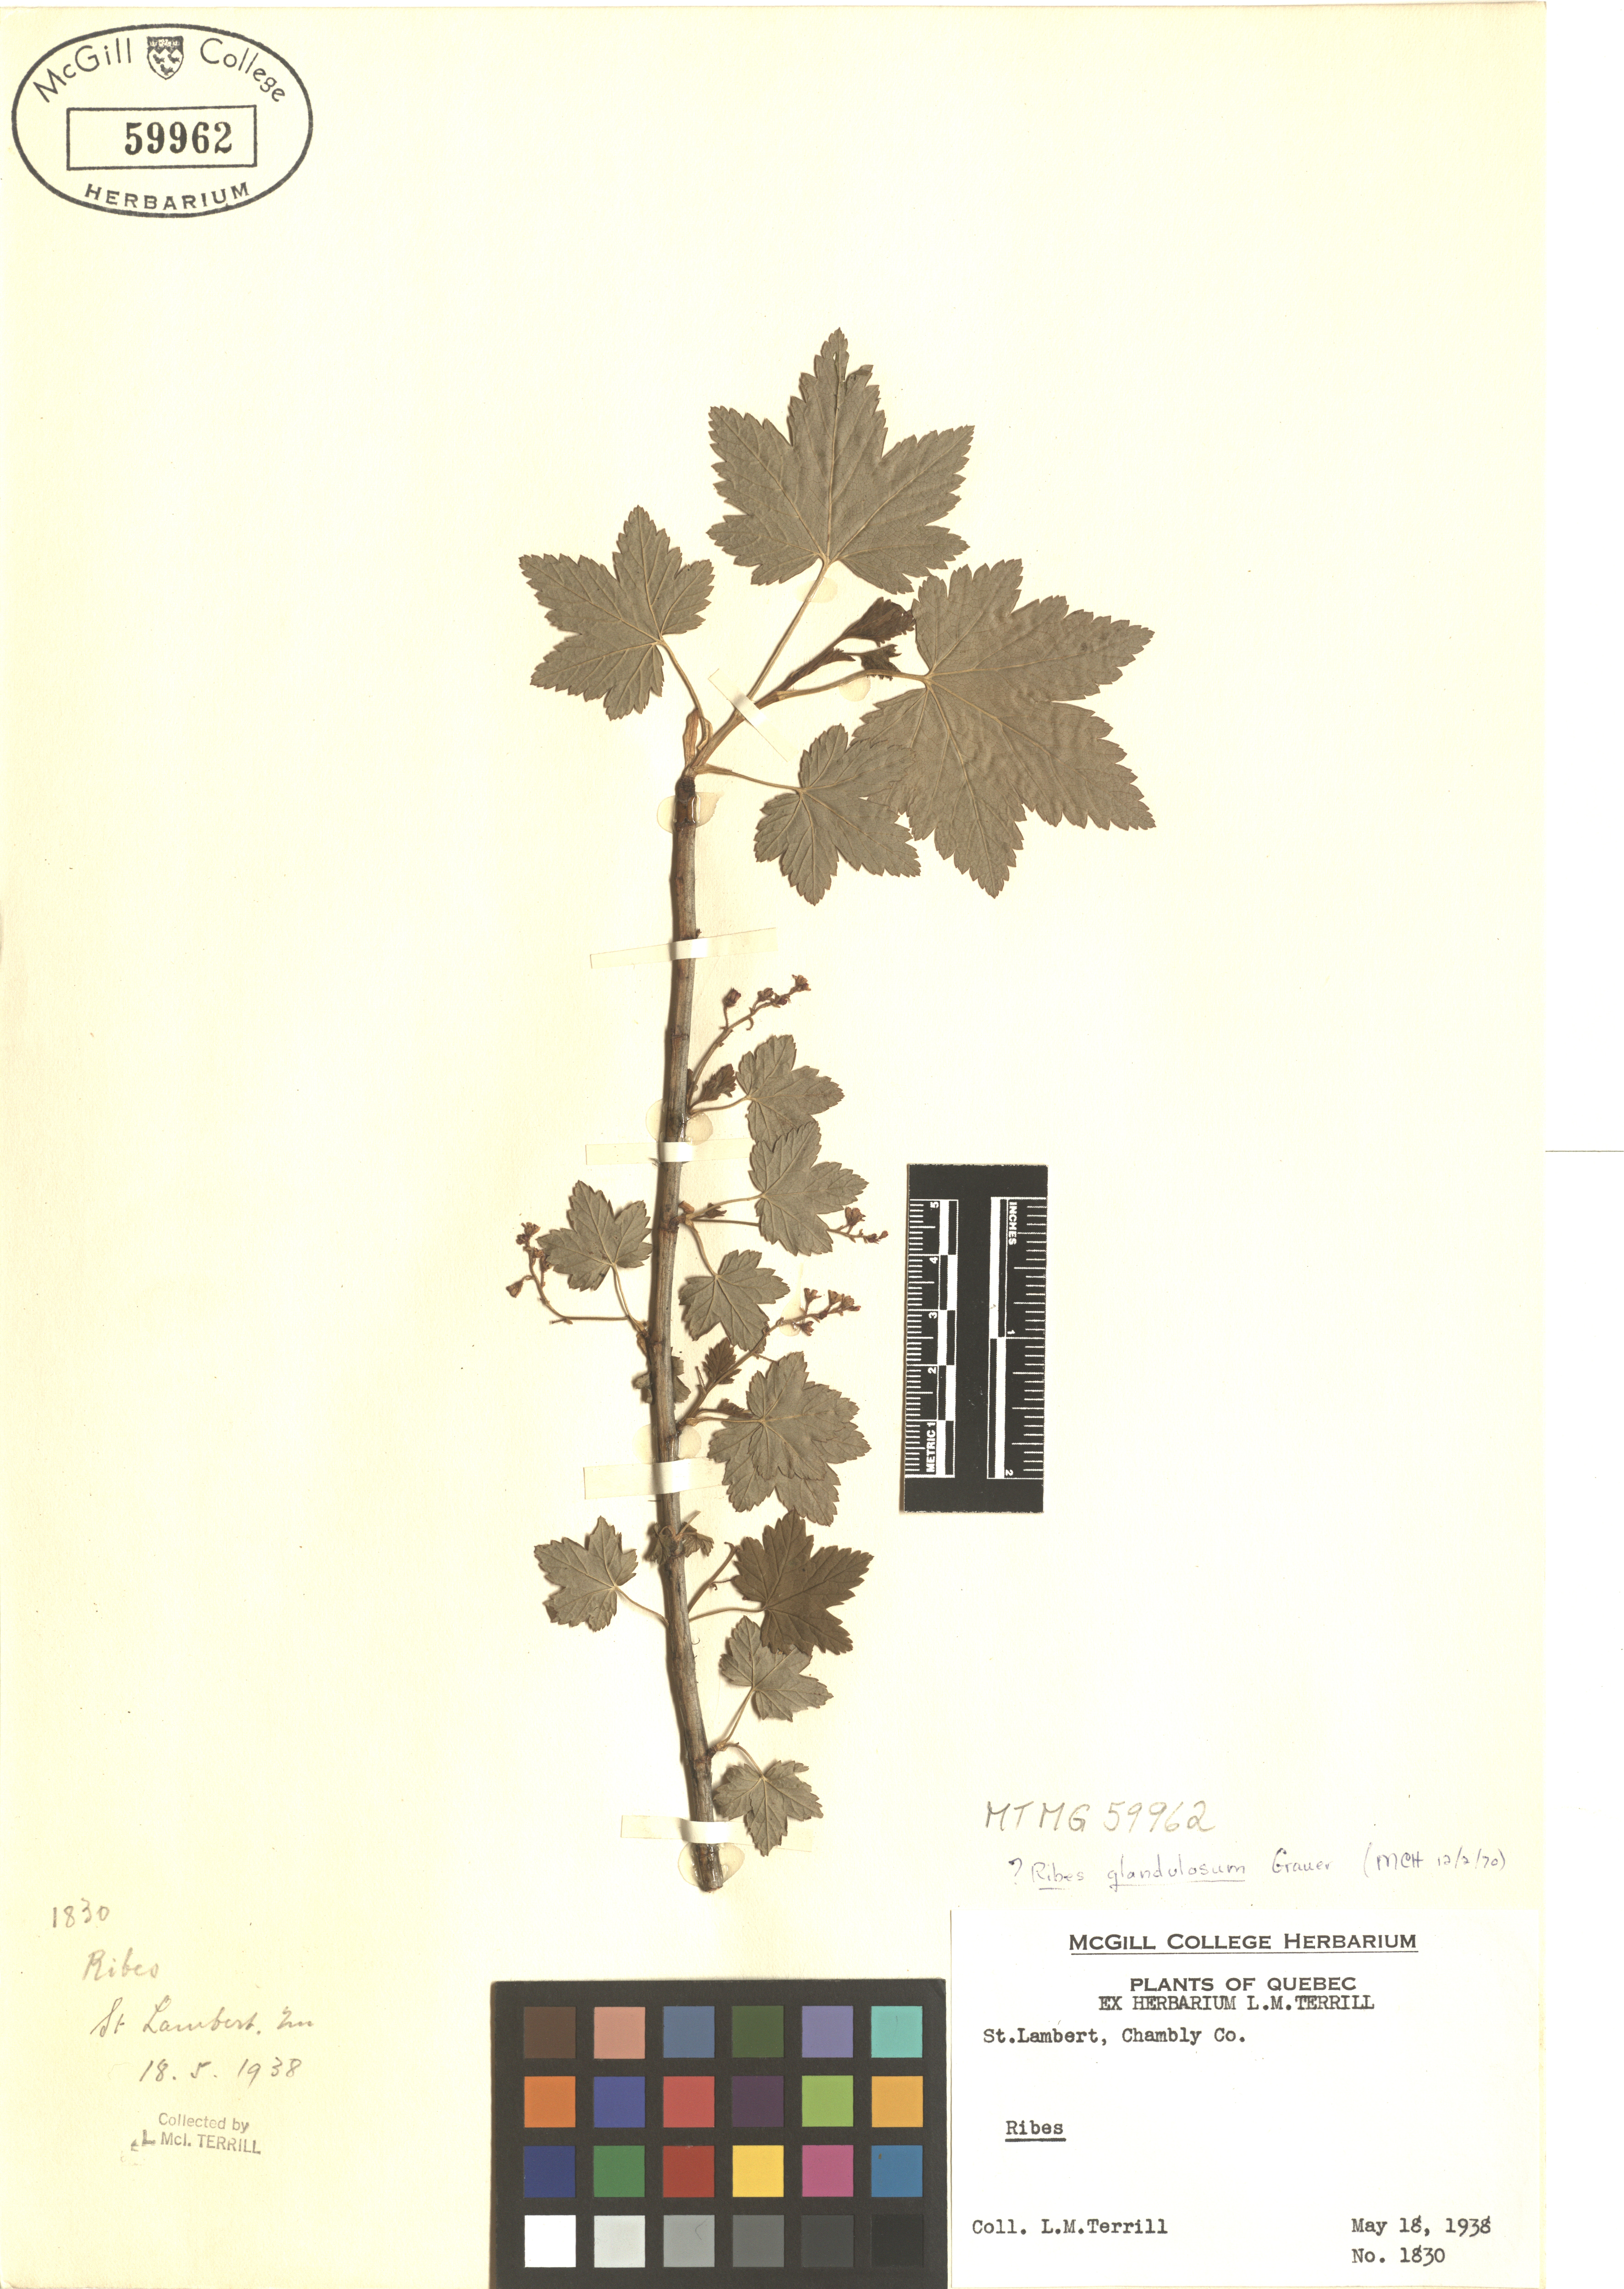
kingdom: Plantae
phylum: Tracheophyta
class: Magnoliopsida
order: Saxifragales
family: Grossulariaceae
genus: Ribes
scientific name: Ribes glandulosum
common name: Skunk currant
